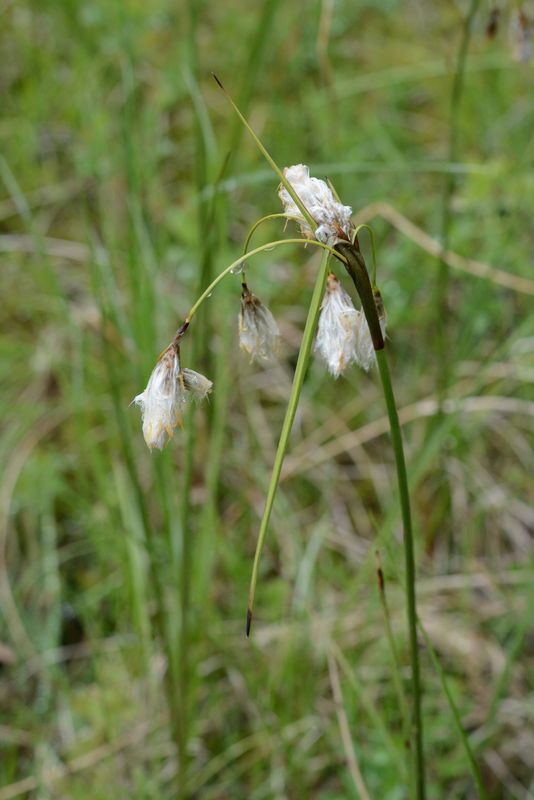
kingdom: Plantae
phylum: Tracheophyta
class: Liliopsida
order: Poales
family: Cyperaceae
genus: Eriophorum
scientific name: Eriophorum angustifolium
